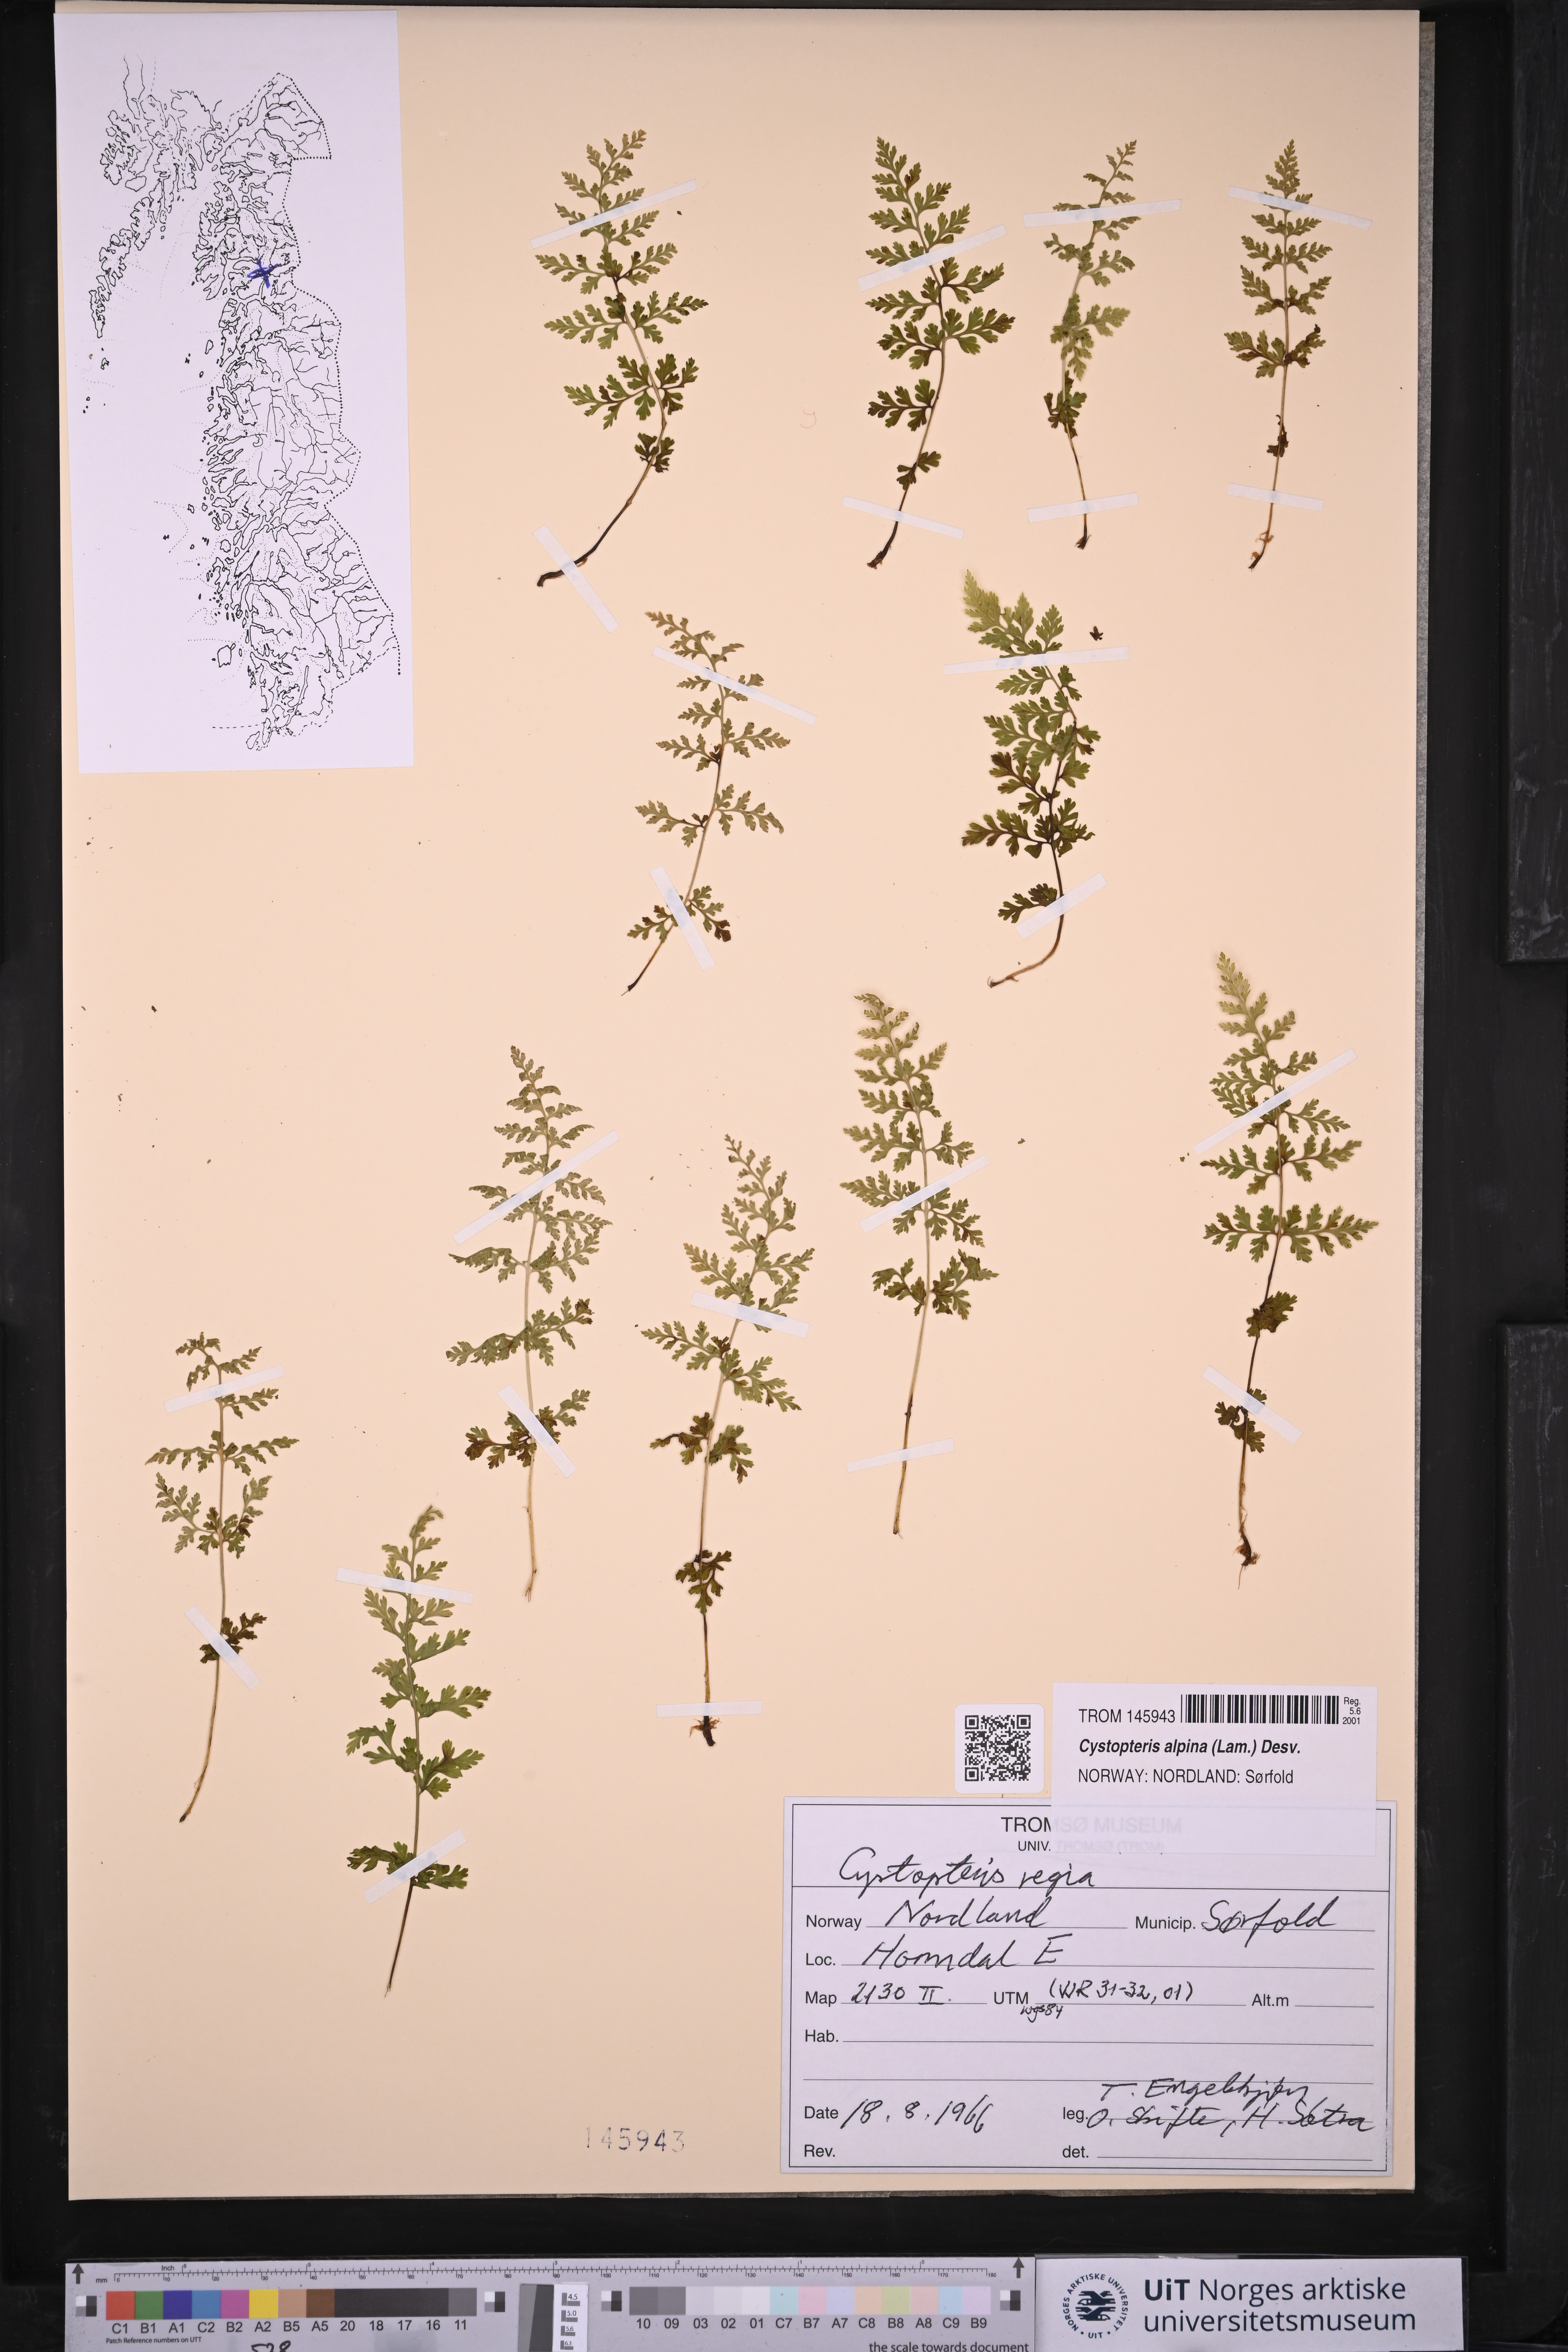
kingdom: Plantae
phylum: Tracheophyta
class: Polypodiopsida
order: Polypodiales
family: Cystopteridaceae
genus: Cystopteris
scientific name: Cystopteris alpina
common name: Alpine bladder-fern
